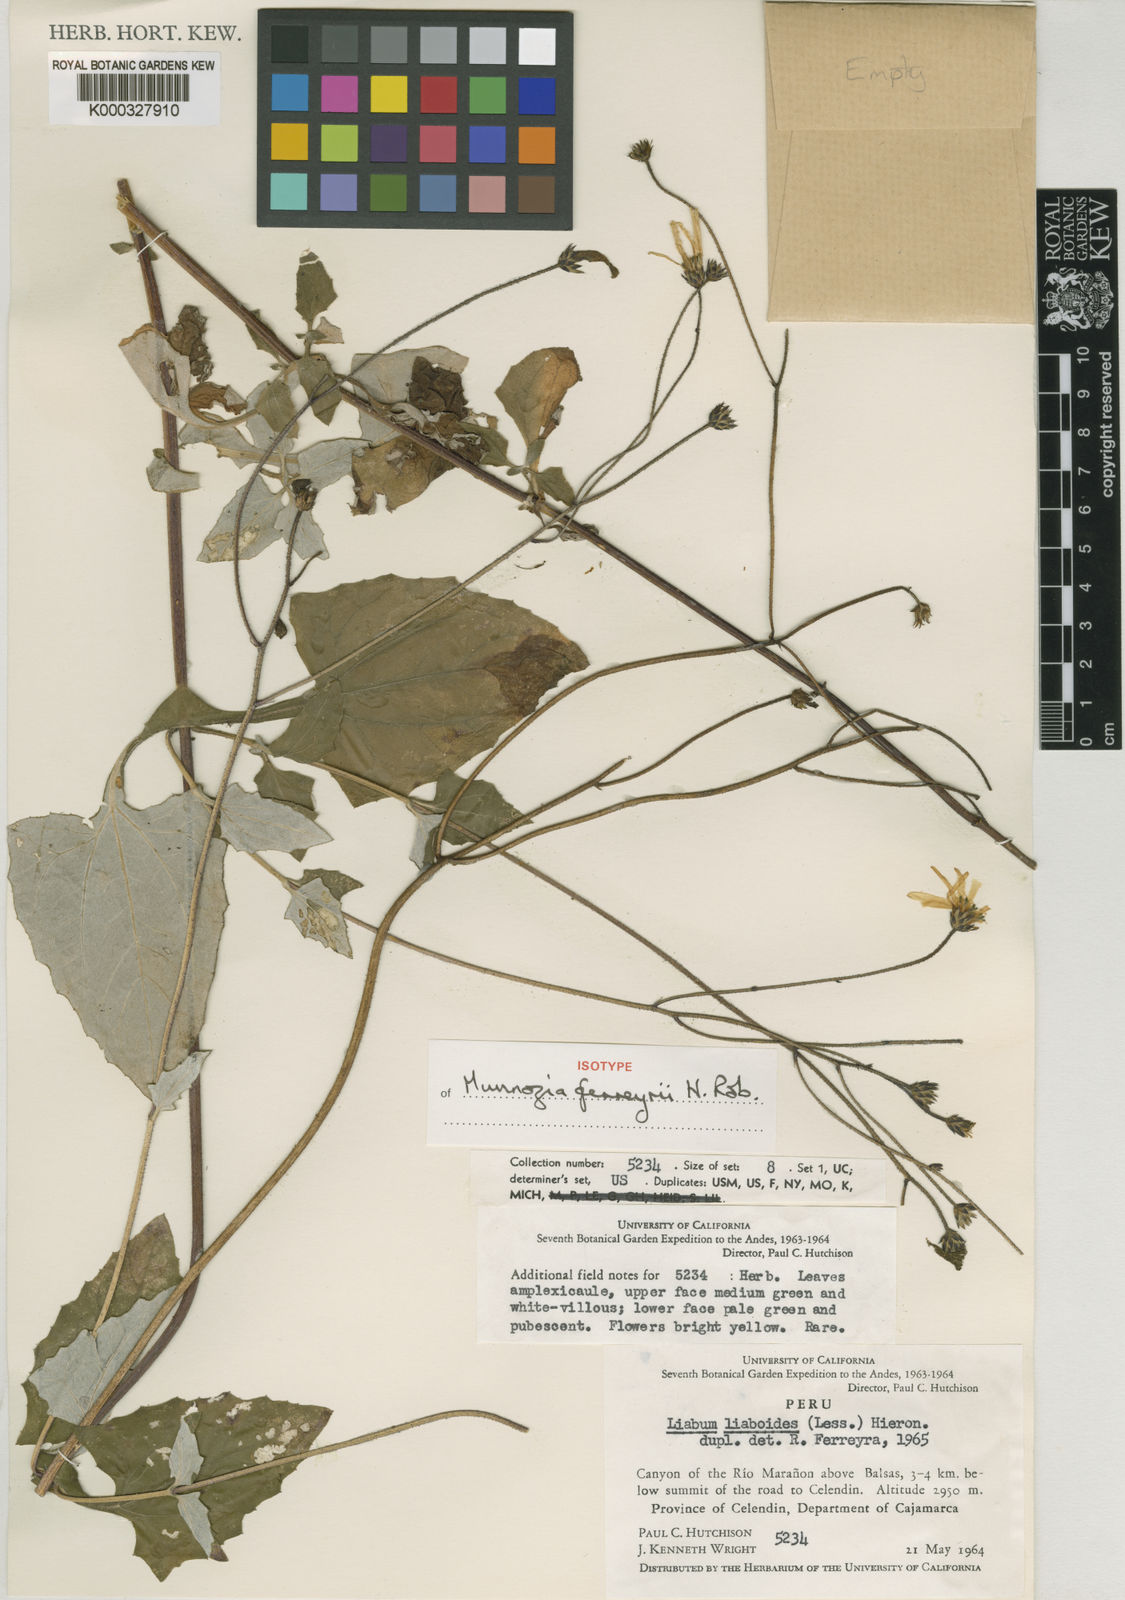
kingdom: Plantae
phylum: Tracheophyta
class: Magnoliopsida
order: Asterales
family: Asteraceae
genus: Munnozia
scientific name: Munnozia ferreyrae
